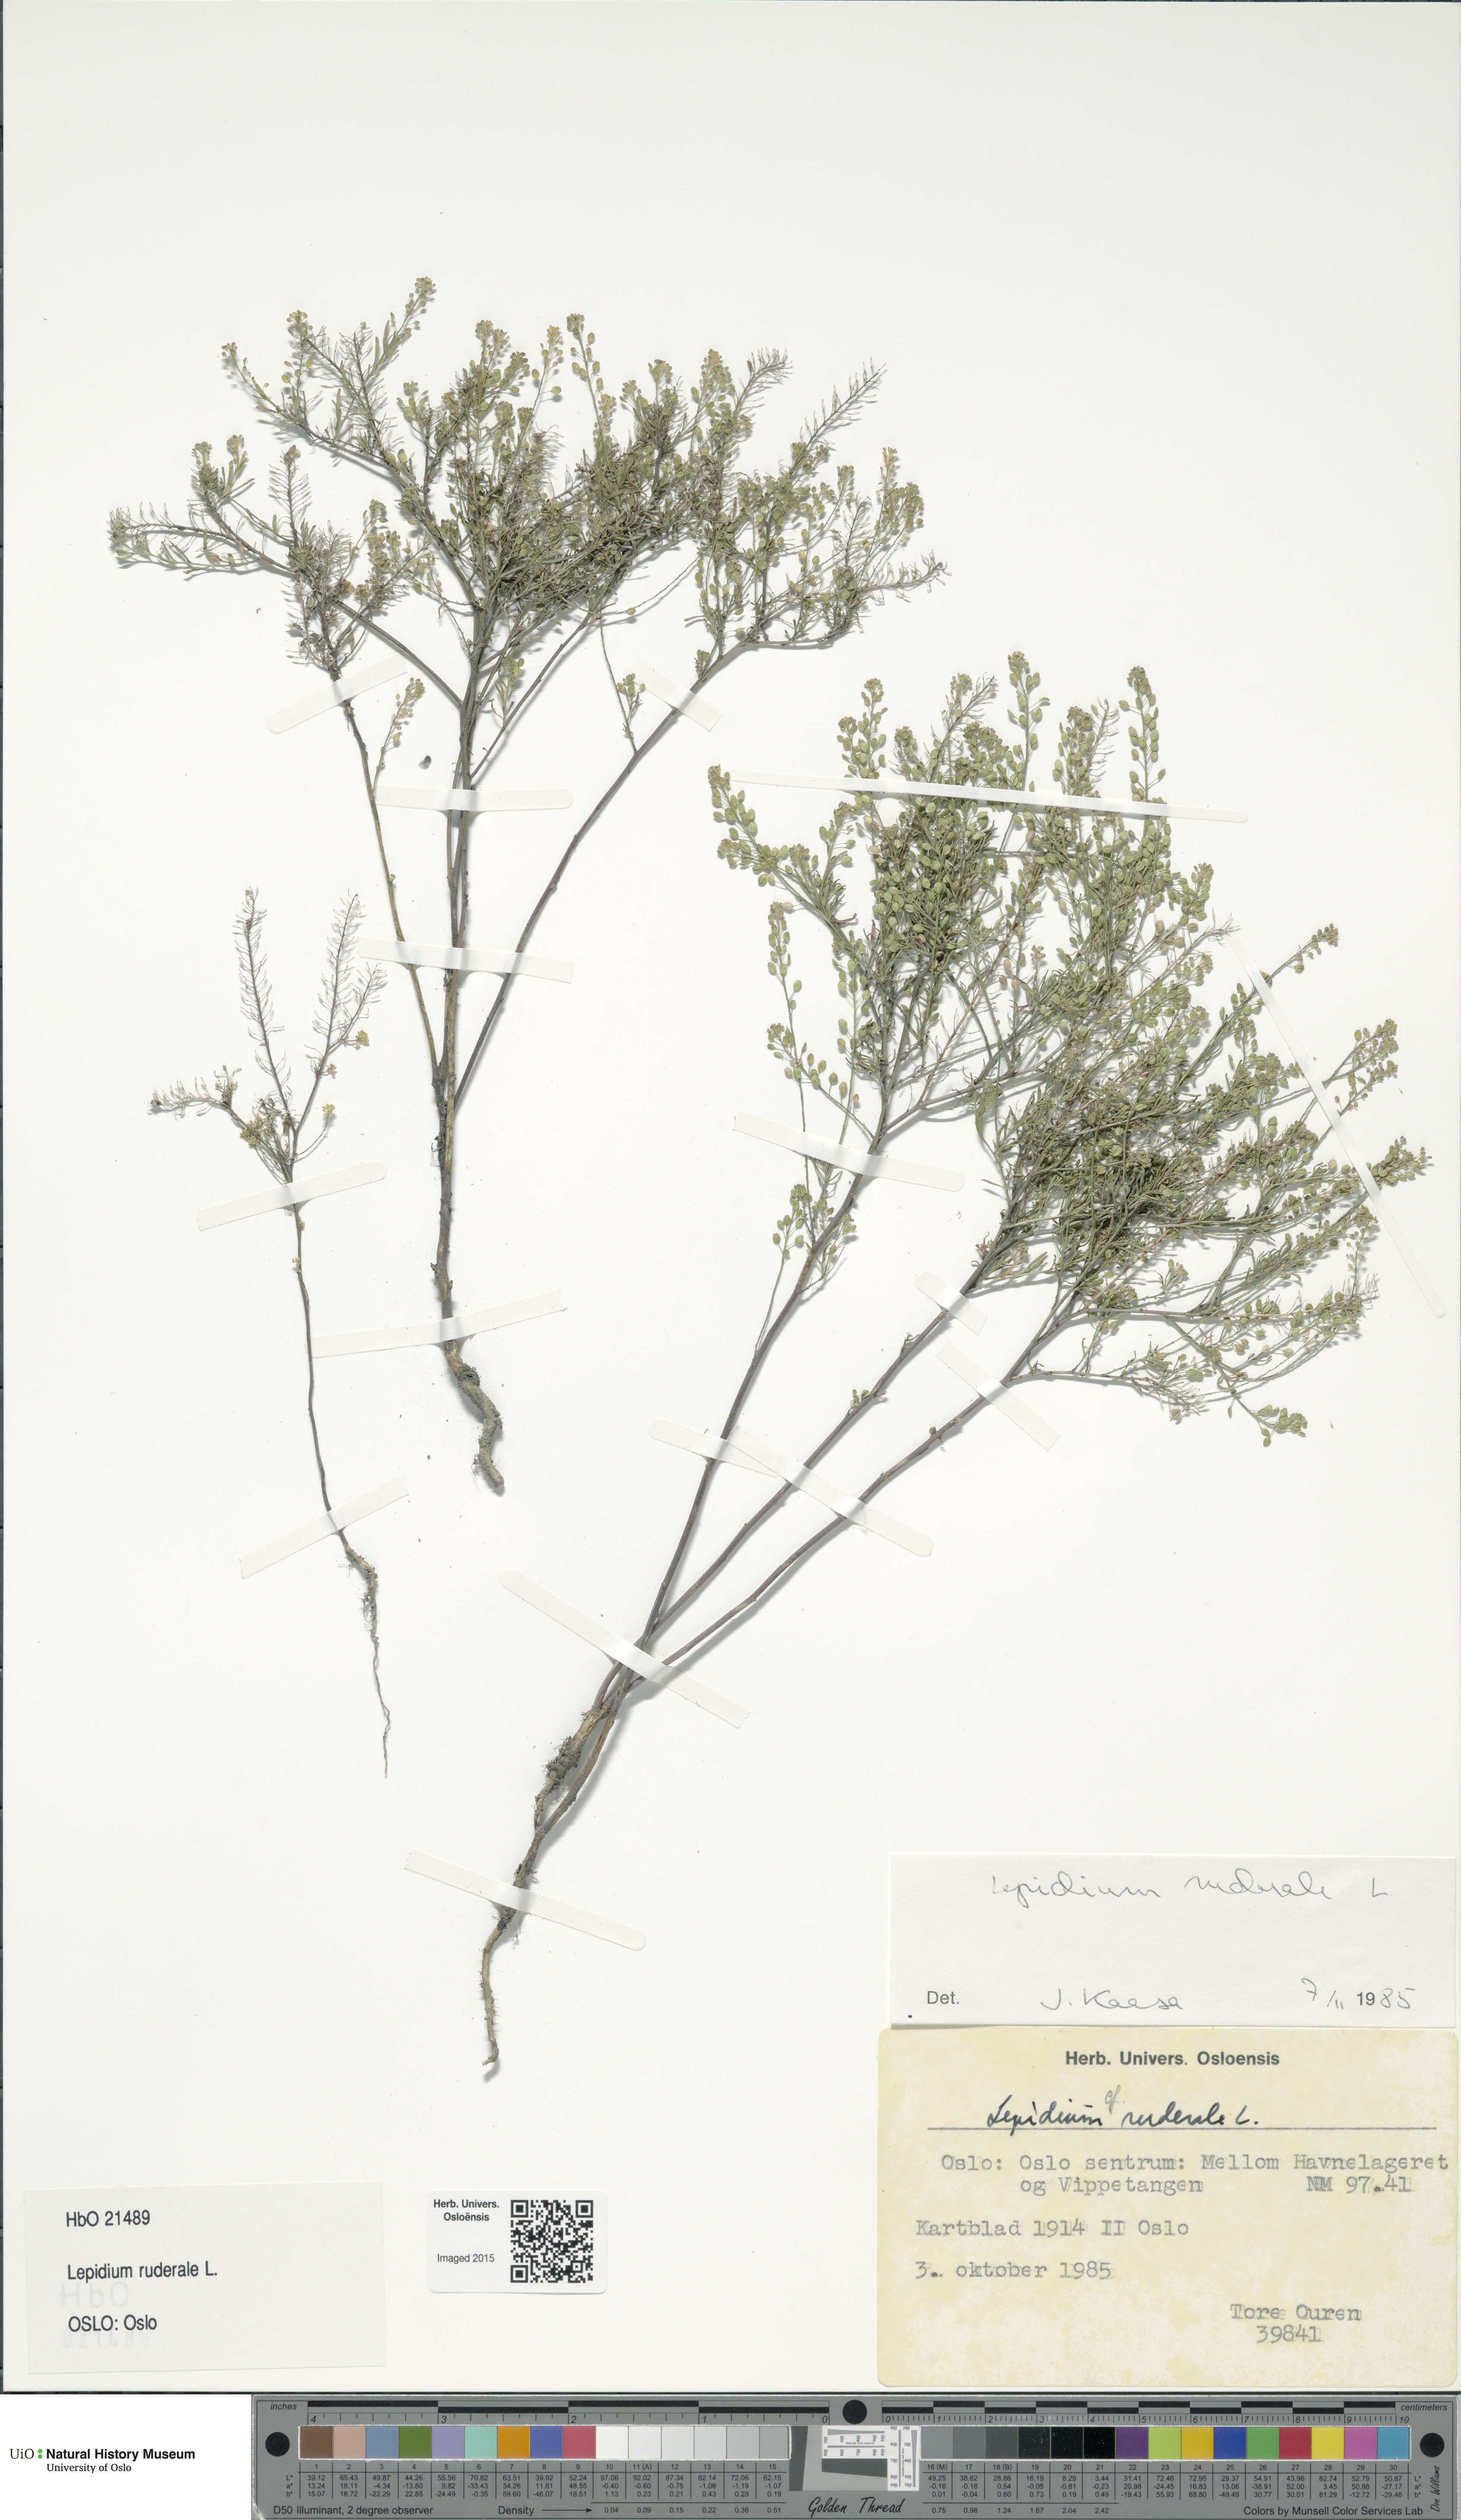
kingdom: Plantae
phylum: Tracheophyta
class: Magnoliopsida
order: Brassicales
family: Brassicaceae
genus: Lepidium
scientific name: Lepidium ruderale
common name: Narrow-leaved pepperwort
